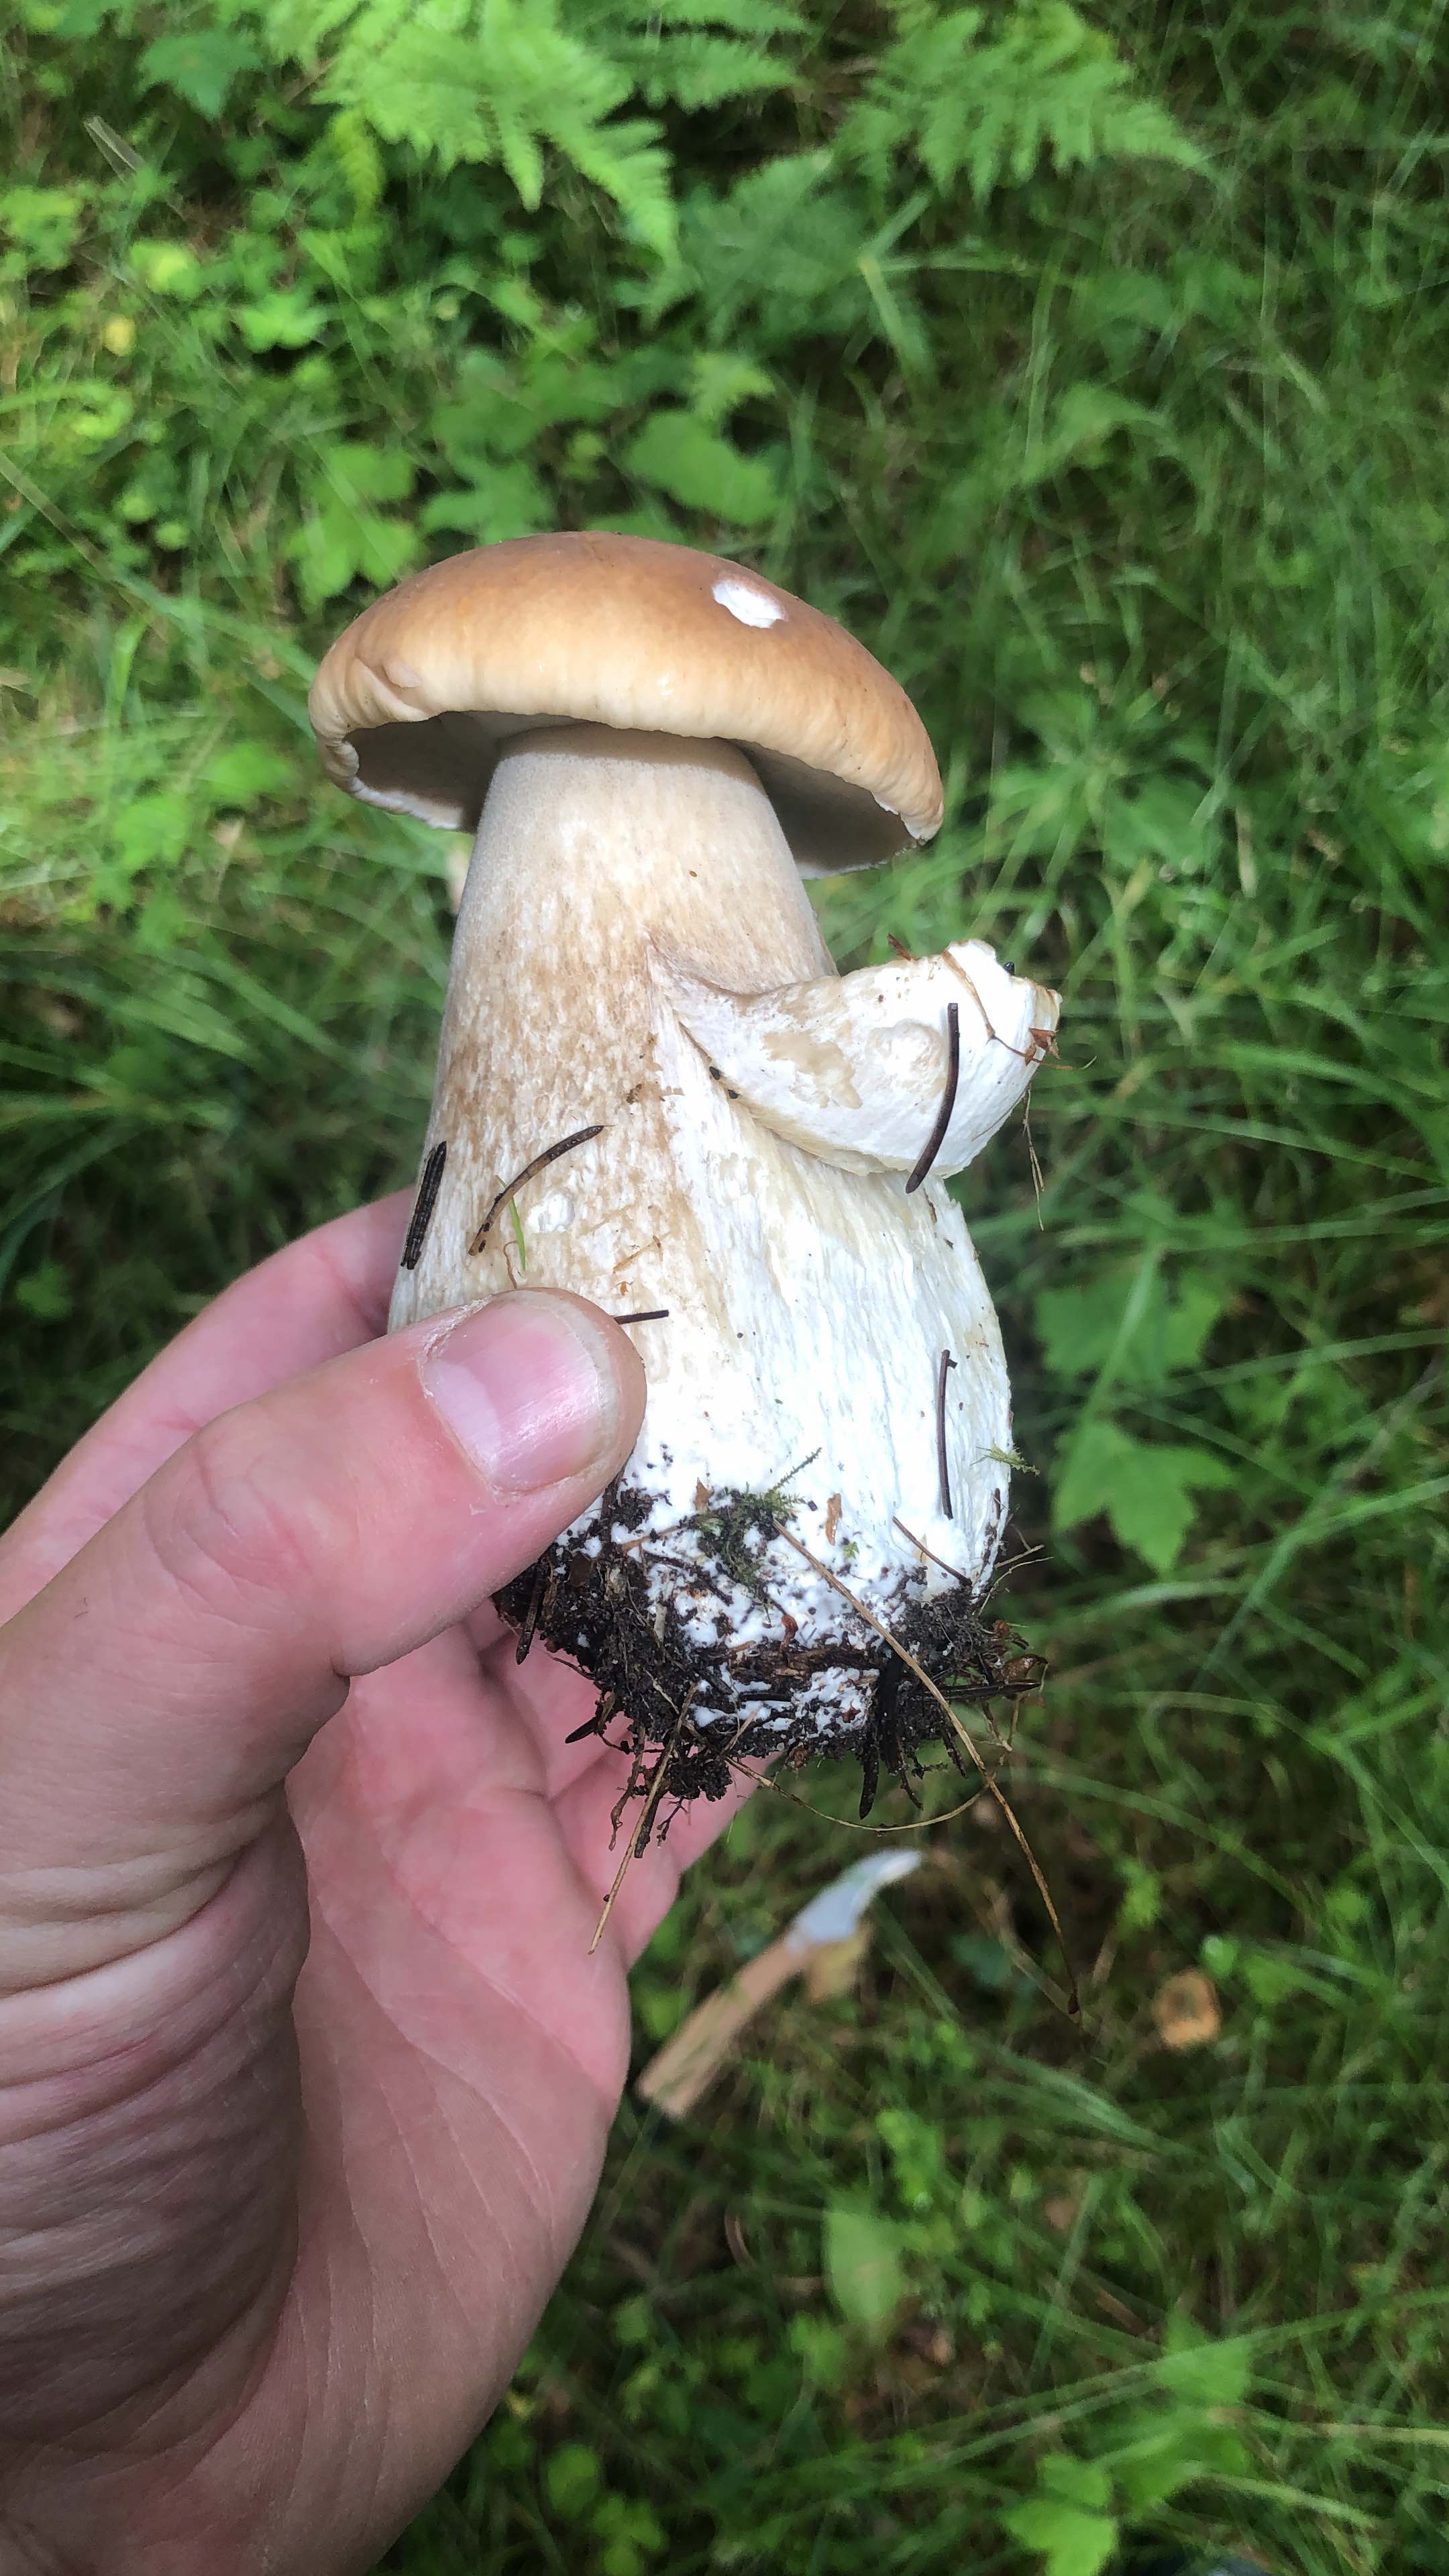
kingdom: Fungi
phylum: Basidiomycota
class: Agaricomycetes
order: Boletales
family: Boletaceae
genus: Boletus
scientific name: Boletus edulis
